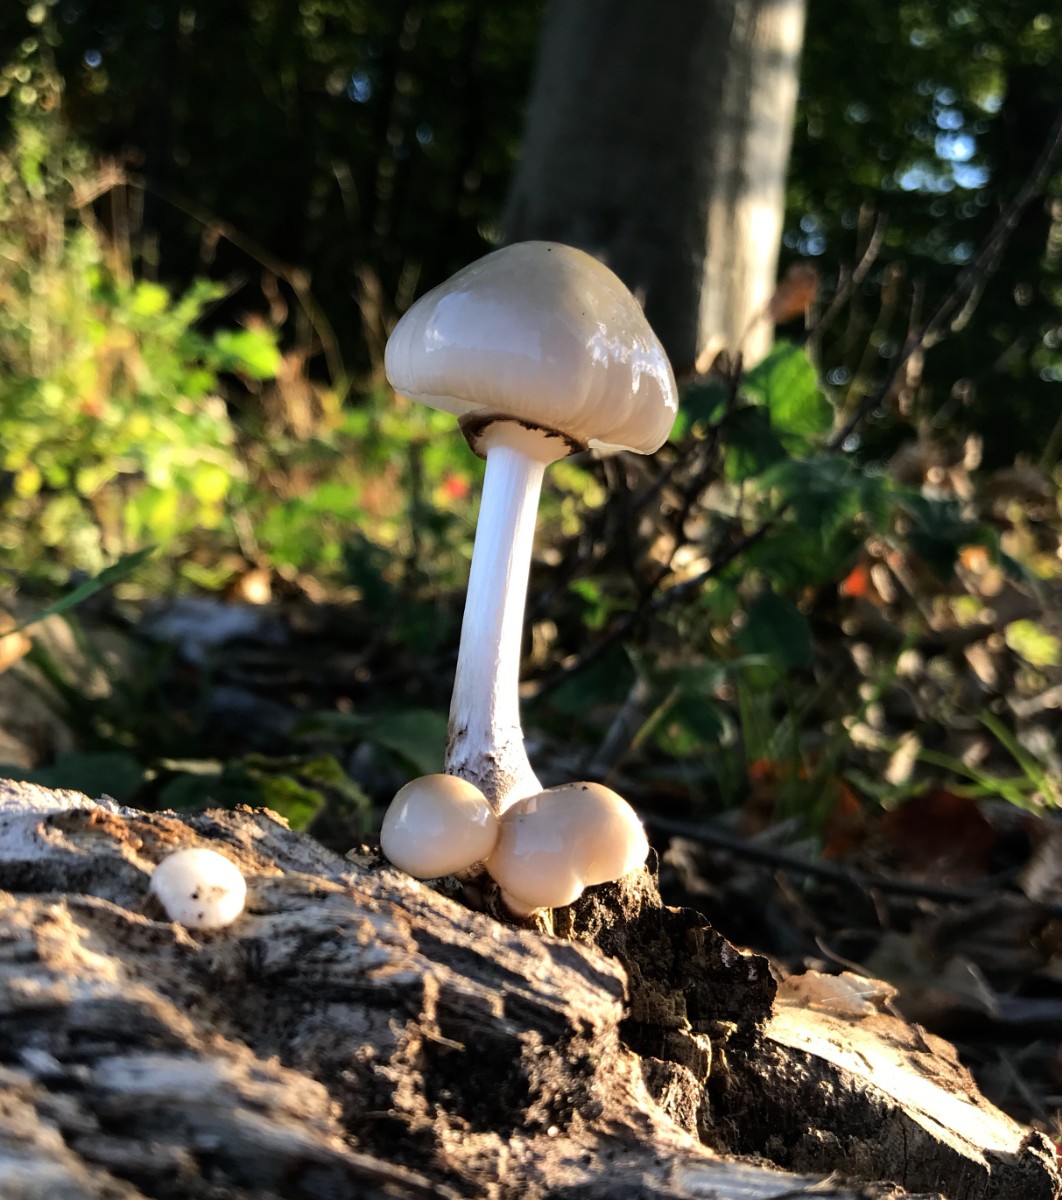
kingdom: Fungi
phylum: Basidiomycota
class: Agaricomycetes
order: Agaricales
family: Physalacriaceae
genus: Mucidula
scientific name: Mucidula mucida
